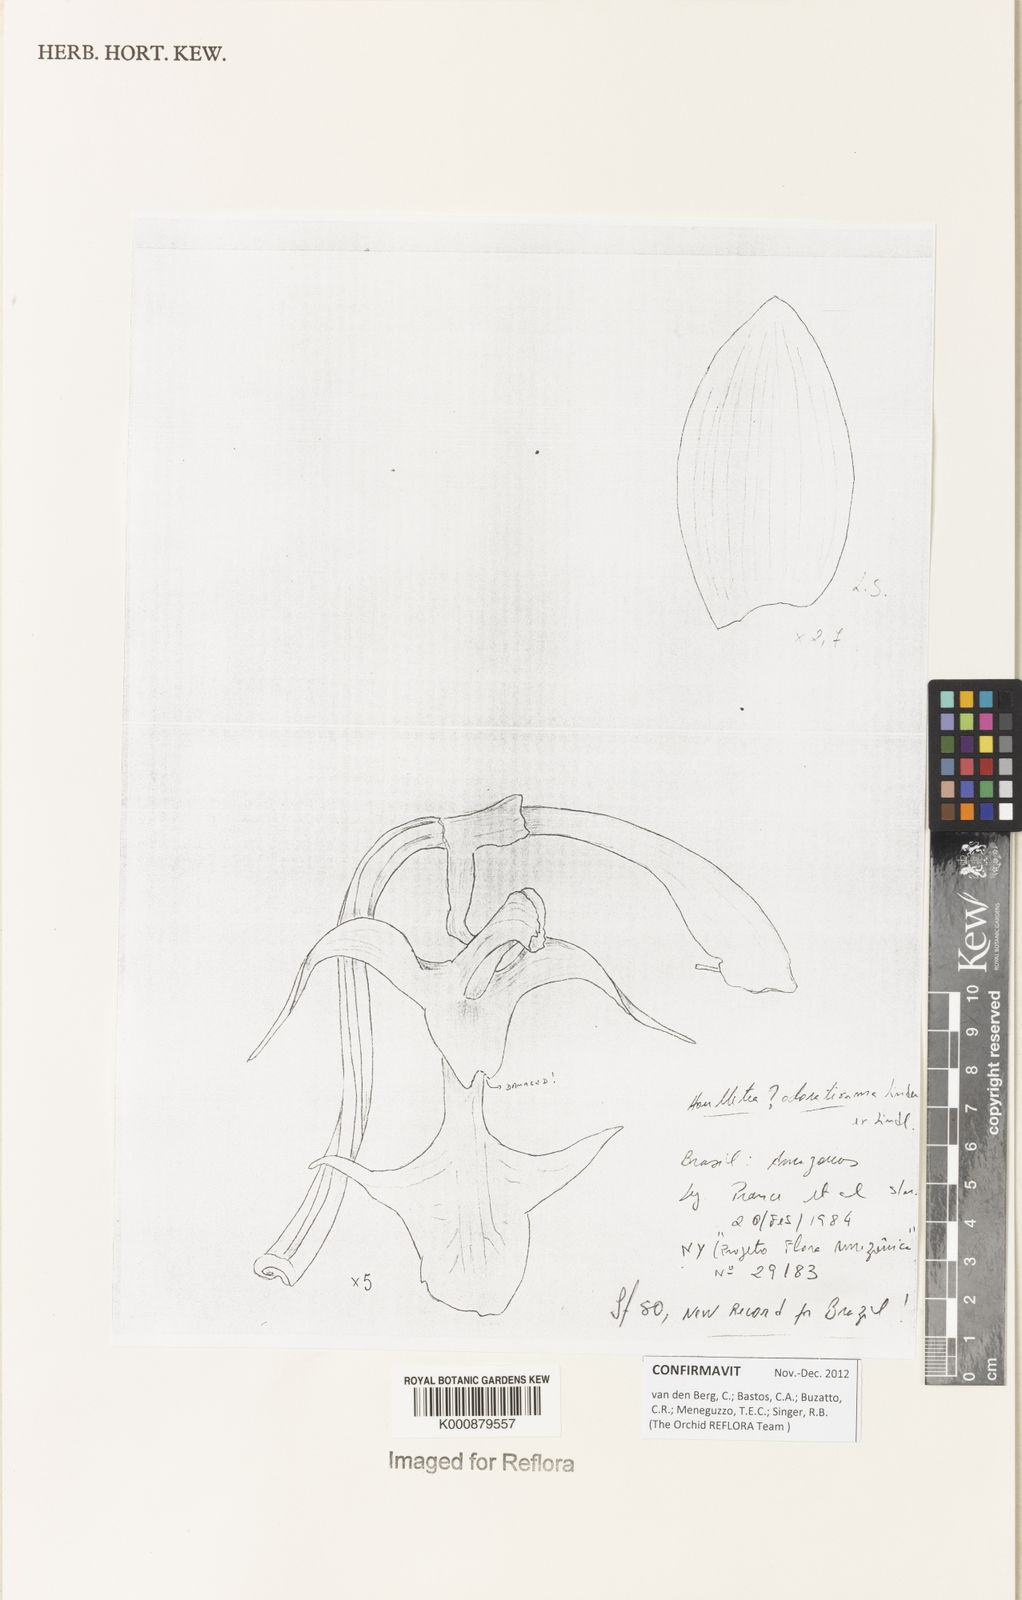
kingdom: Plantae
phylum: Tracheophyta
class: Liliopsida
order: Asparagales
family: Orchidaceae
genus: Houlletia
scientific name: Houlletia odoratissima
